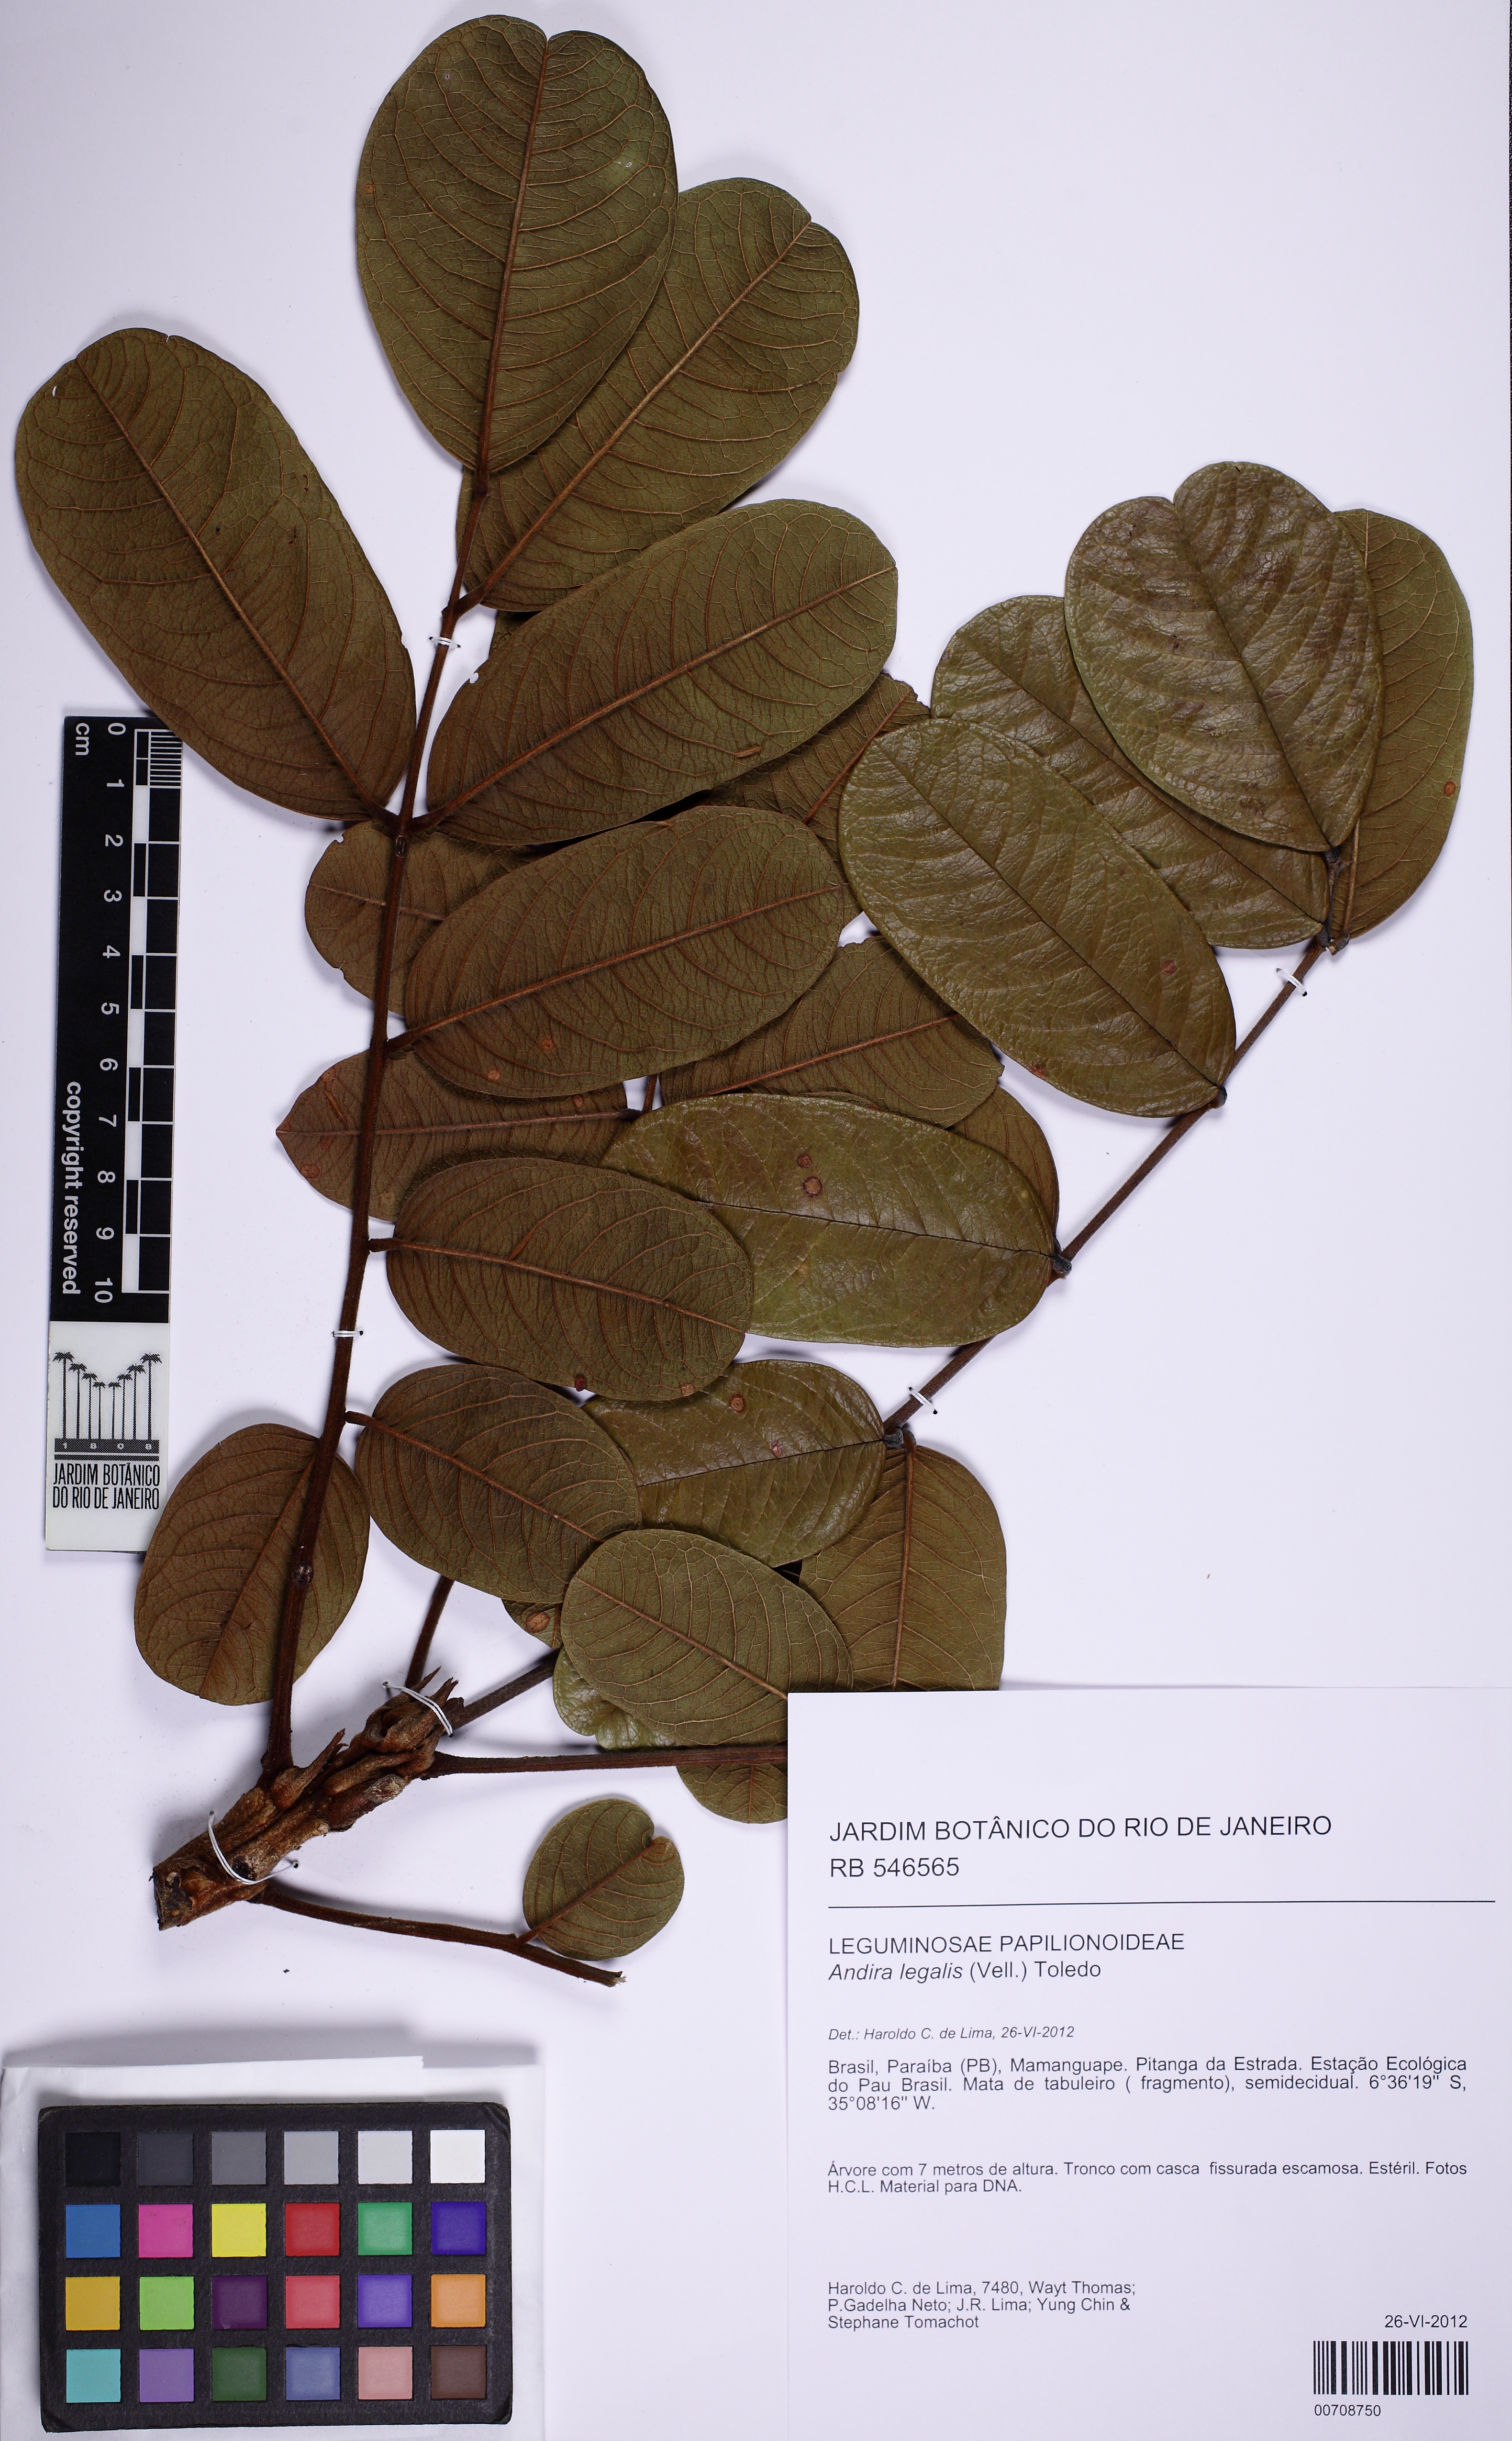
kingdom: Plantae
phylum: Tracheophyta
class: Magnoliopsida
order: Fabales
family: Fabaceae
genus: Andira
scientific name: Andira legalis
